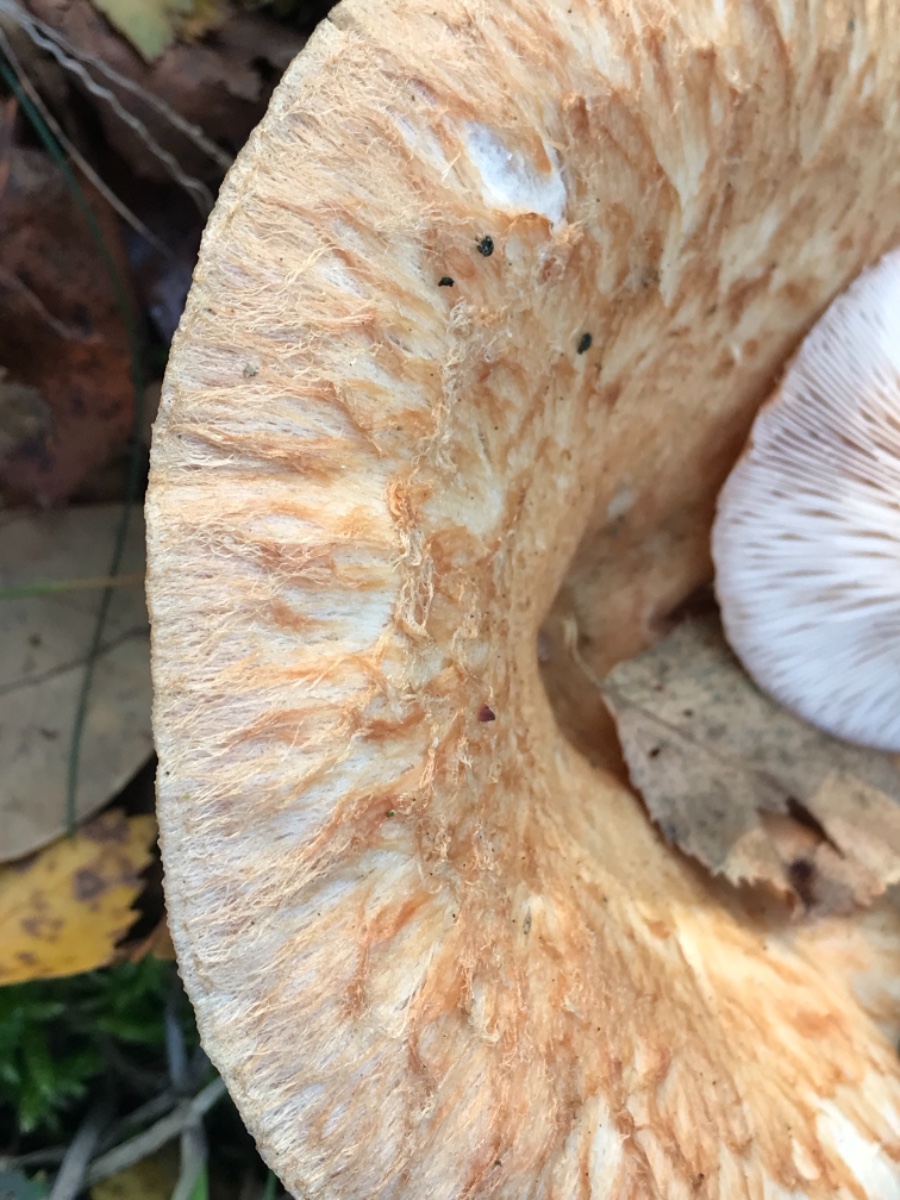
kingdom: Fungi
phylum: Basidiomycota
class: Agaricomycetes
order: Russulales
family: Russulaceae
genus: Lactarius
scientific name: Lactarius torminosus
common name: skægget mælkehat
